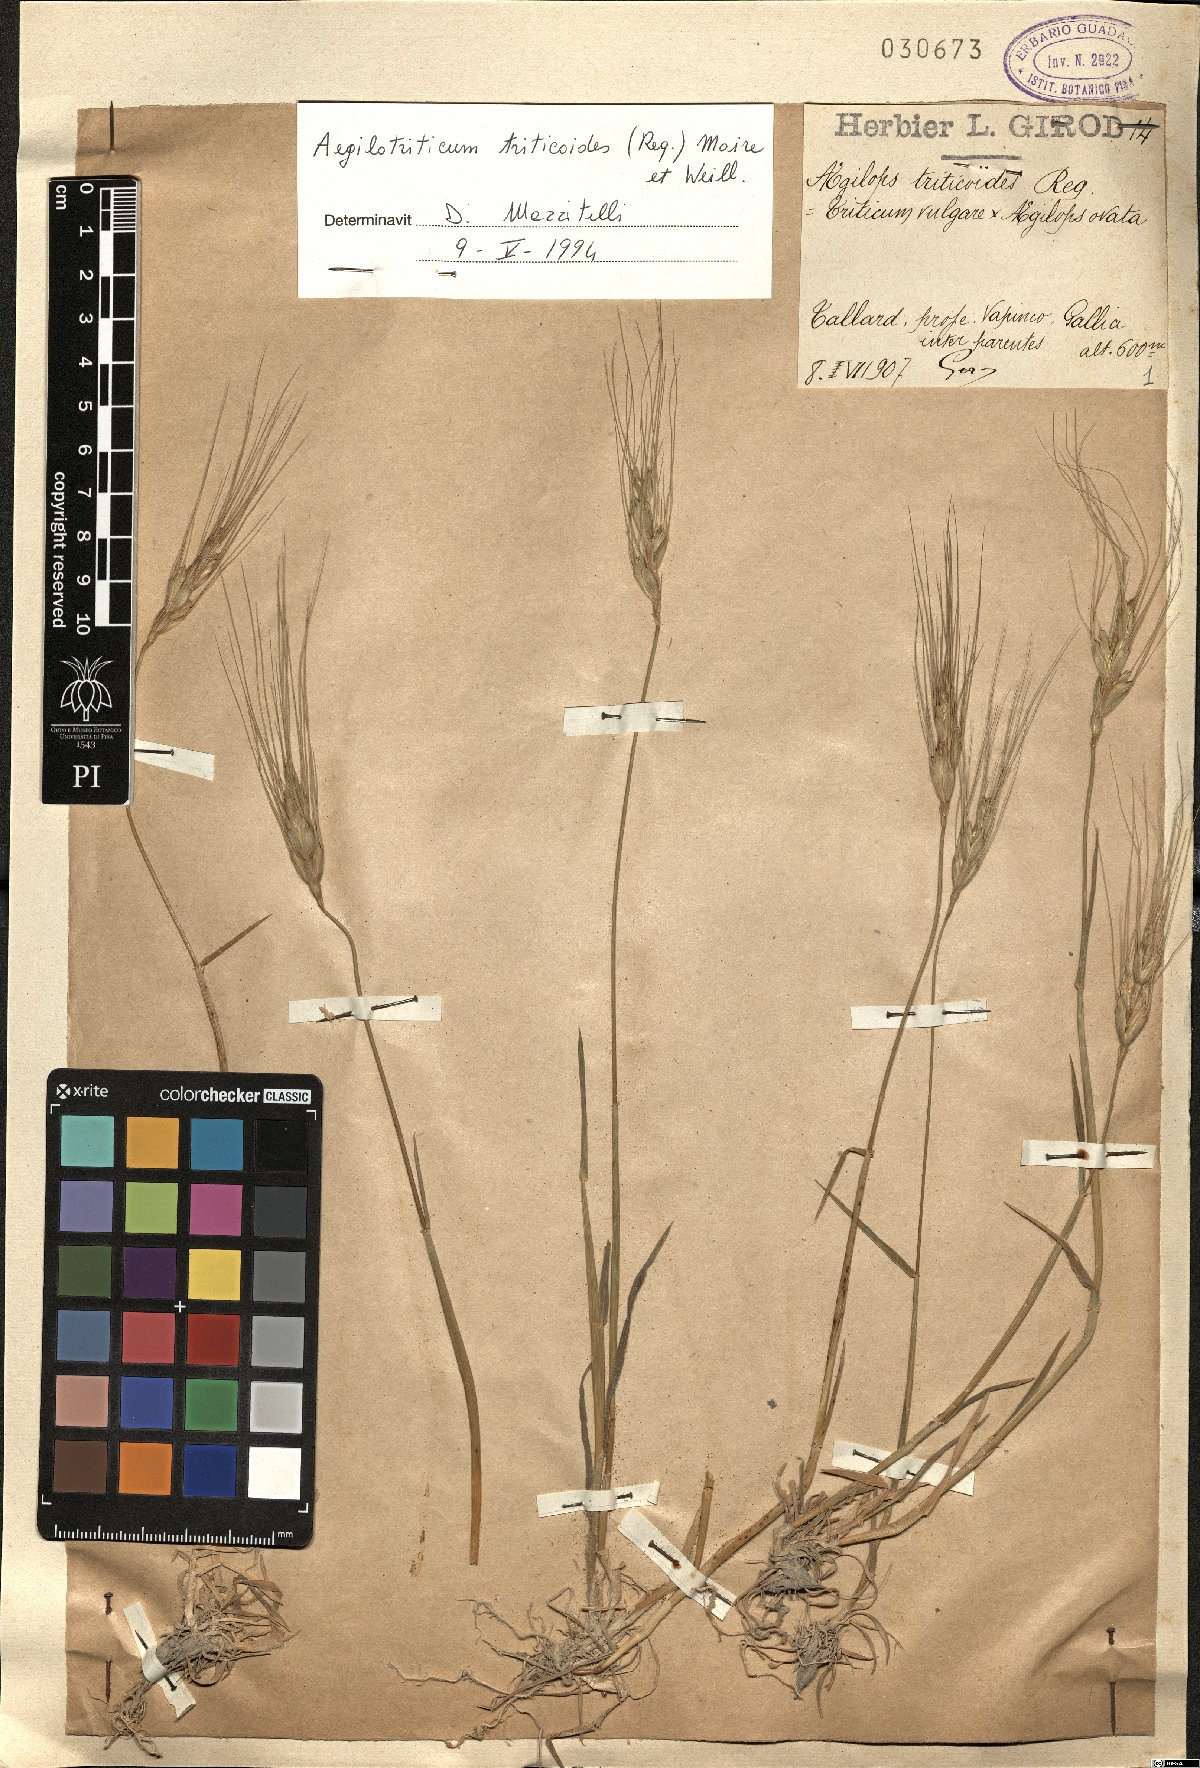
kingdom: Plantae
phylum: Tracheophyta
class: Liliopsida
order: Poales
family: Poaceae
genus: Aegilotriticum
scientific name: Aegilotriticum triticoides
